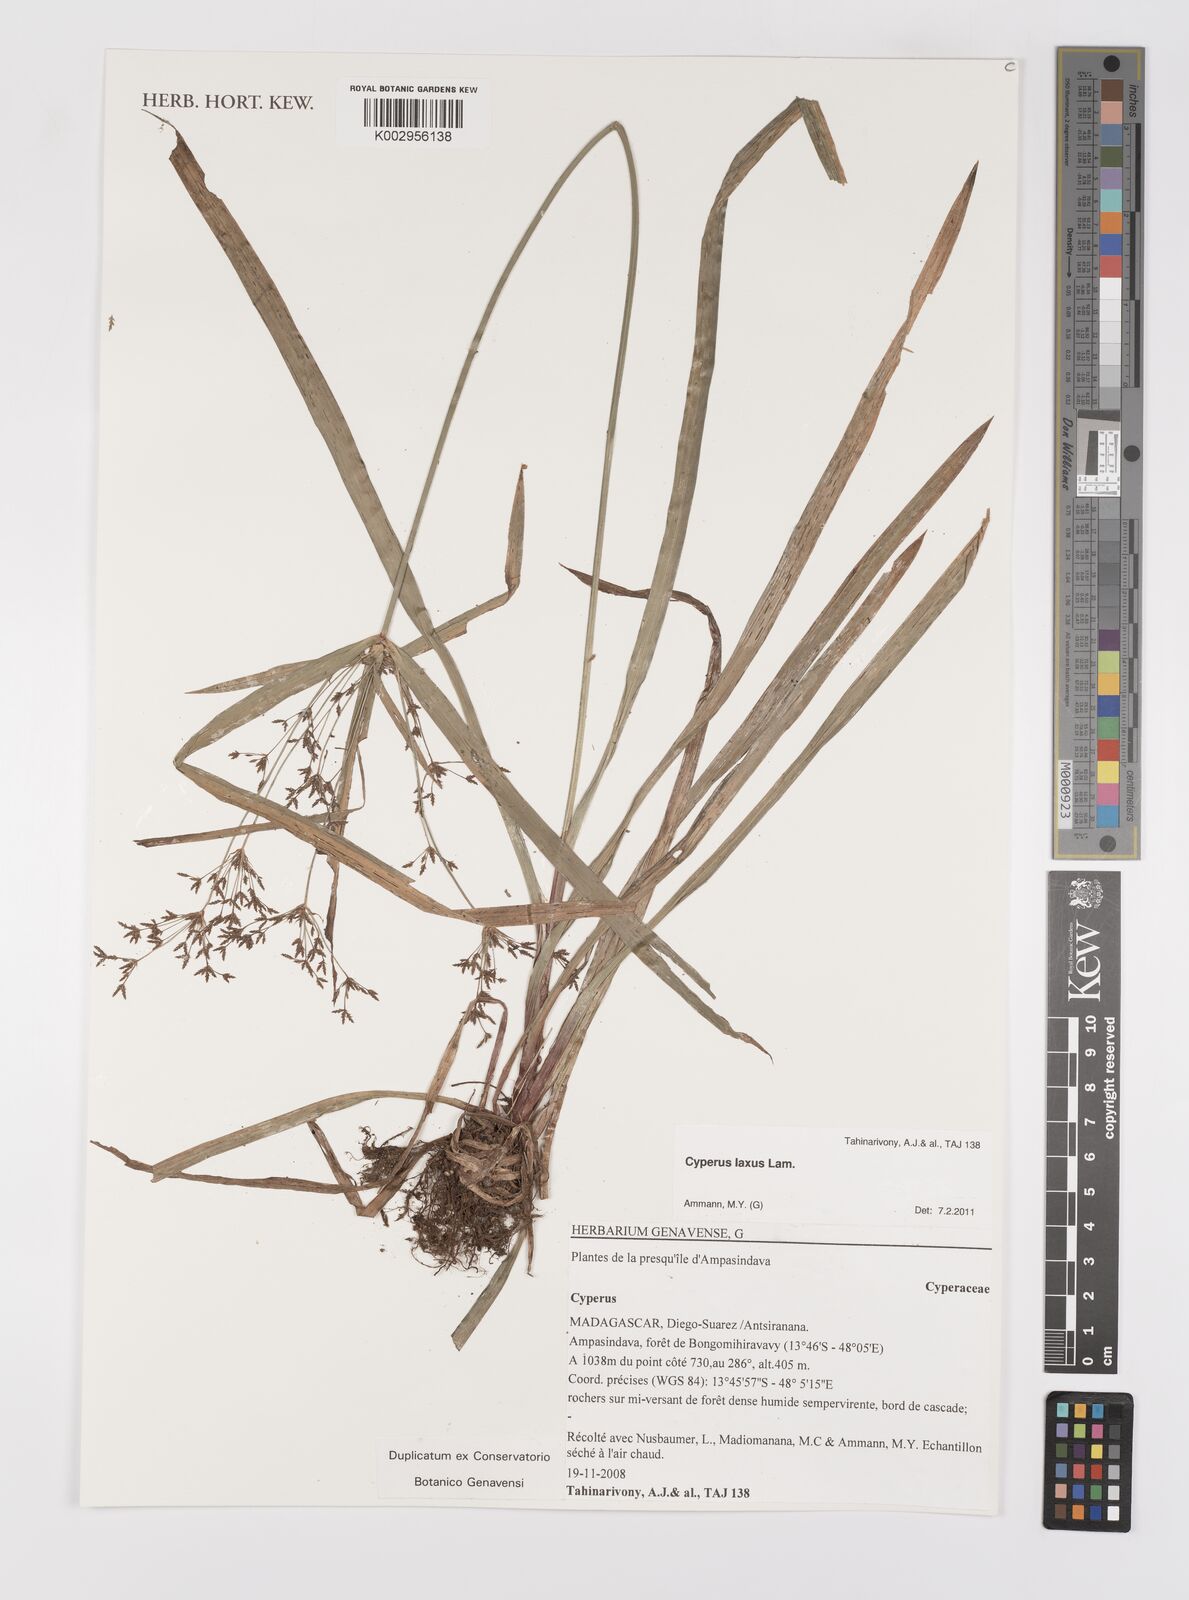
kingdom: Plantae
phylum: Tracheophyta
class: Liliopsida
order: Poales
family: Cyperaceae
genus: Cyperus
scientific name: Cyperus laxus
